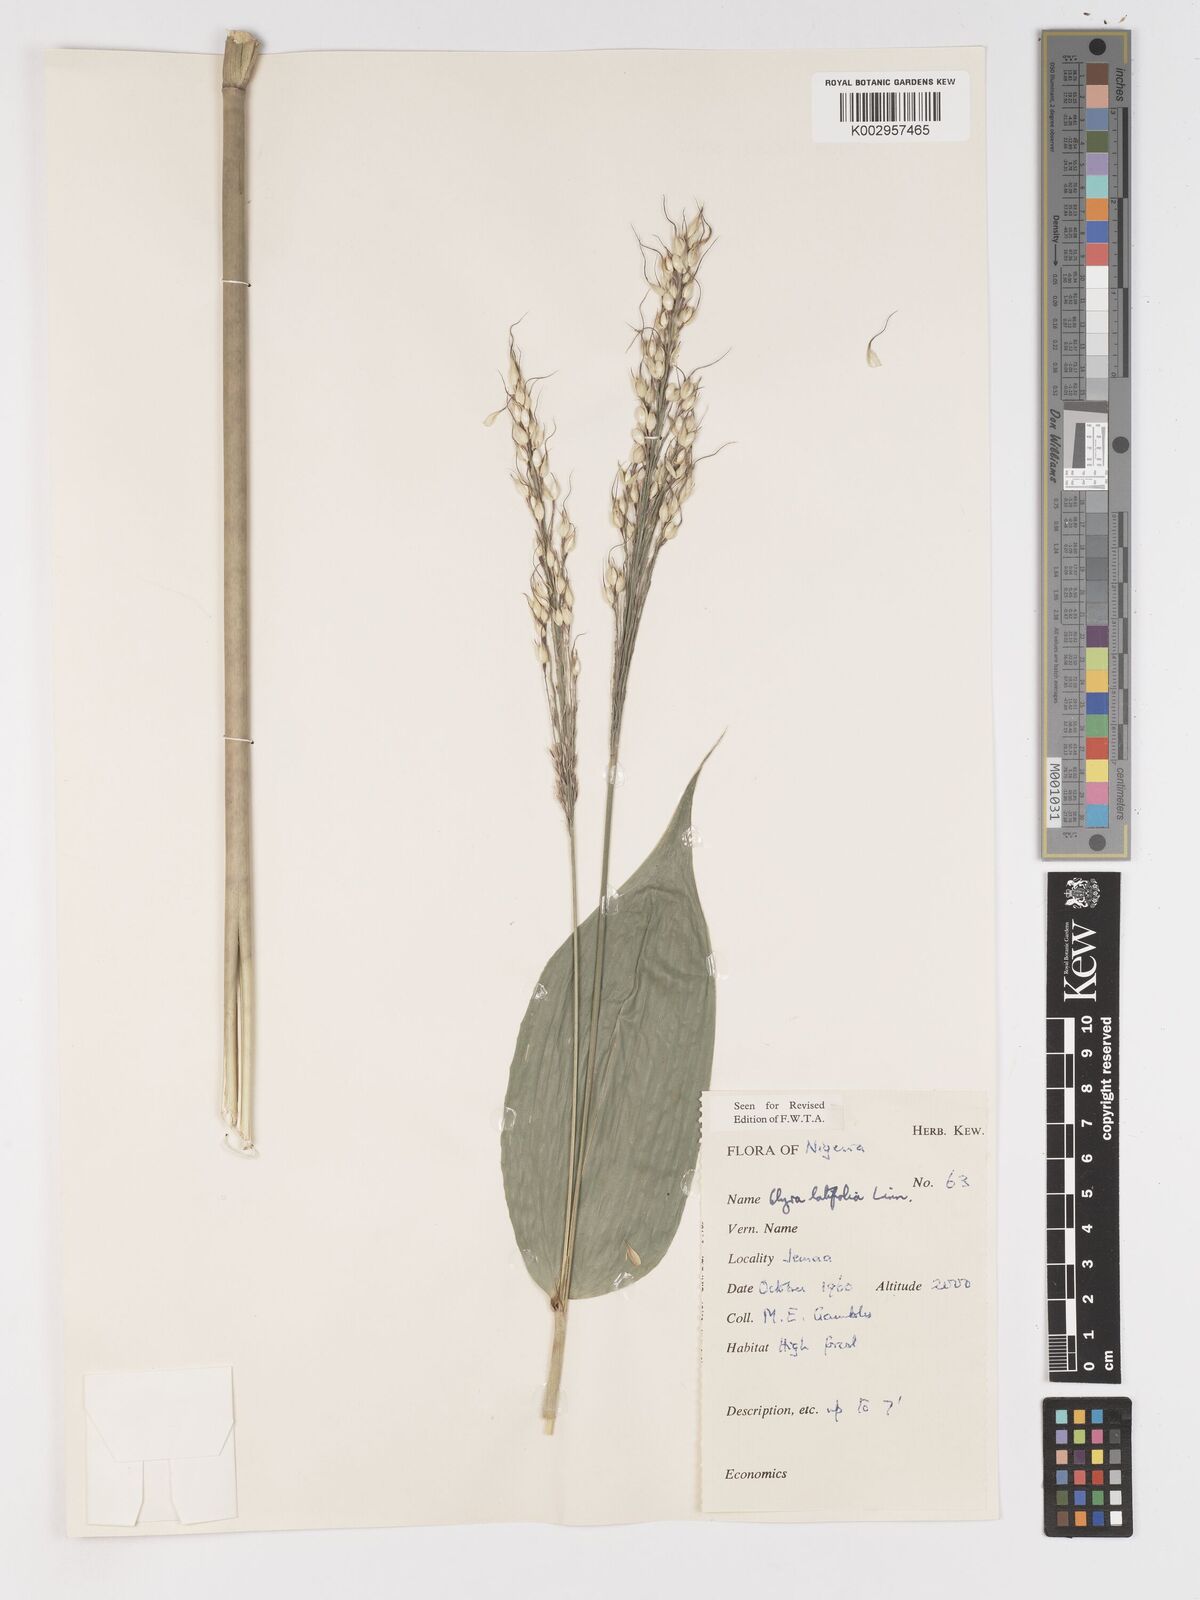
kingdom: Plantae
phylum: Tracheophyta
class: Liliopsida
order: Poales
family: Poaceae
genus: Olyra
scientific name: Olyra latifolia
